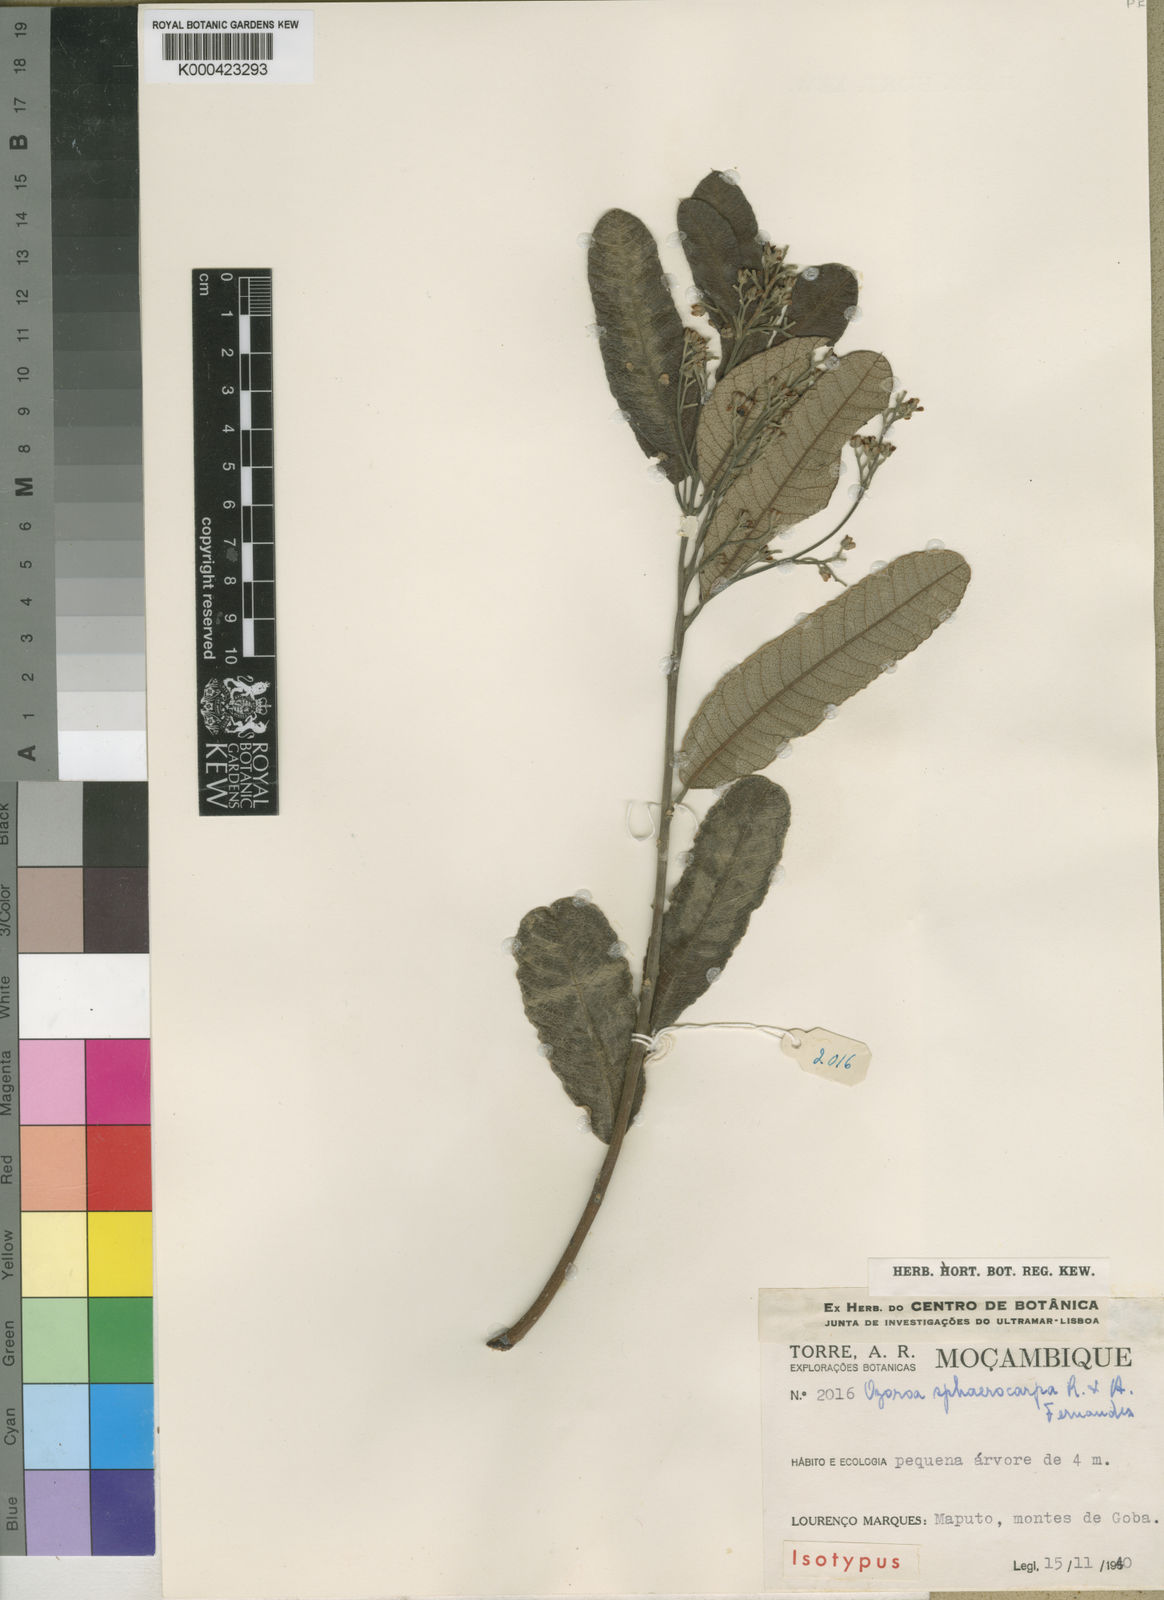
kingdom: Plantae
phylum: Tracheophyta
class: Magnoliopsida
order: Sapindales
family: Anacardiaceae
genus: Ozoroa
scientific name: Ozoroa sphaerocarpa
